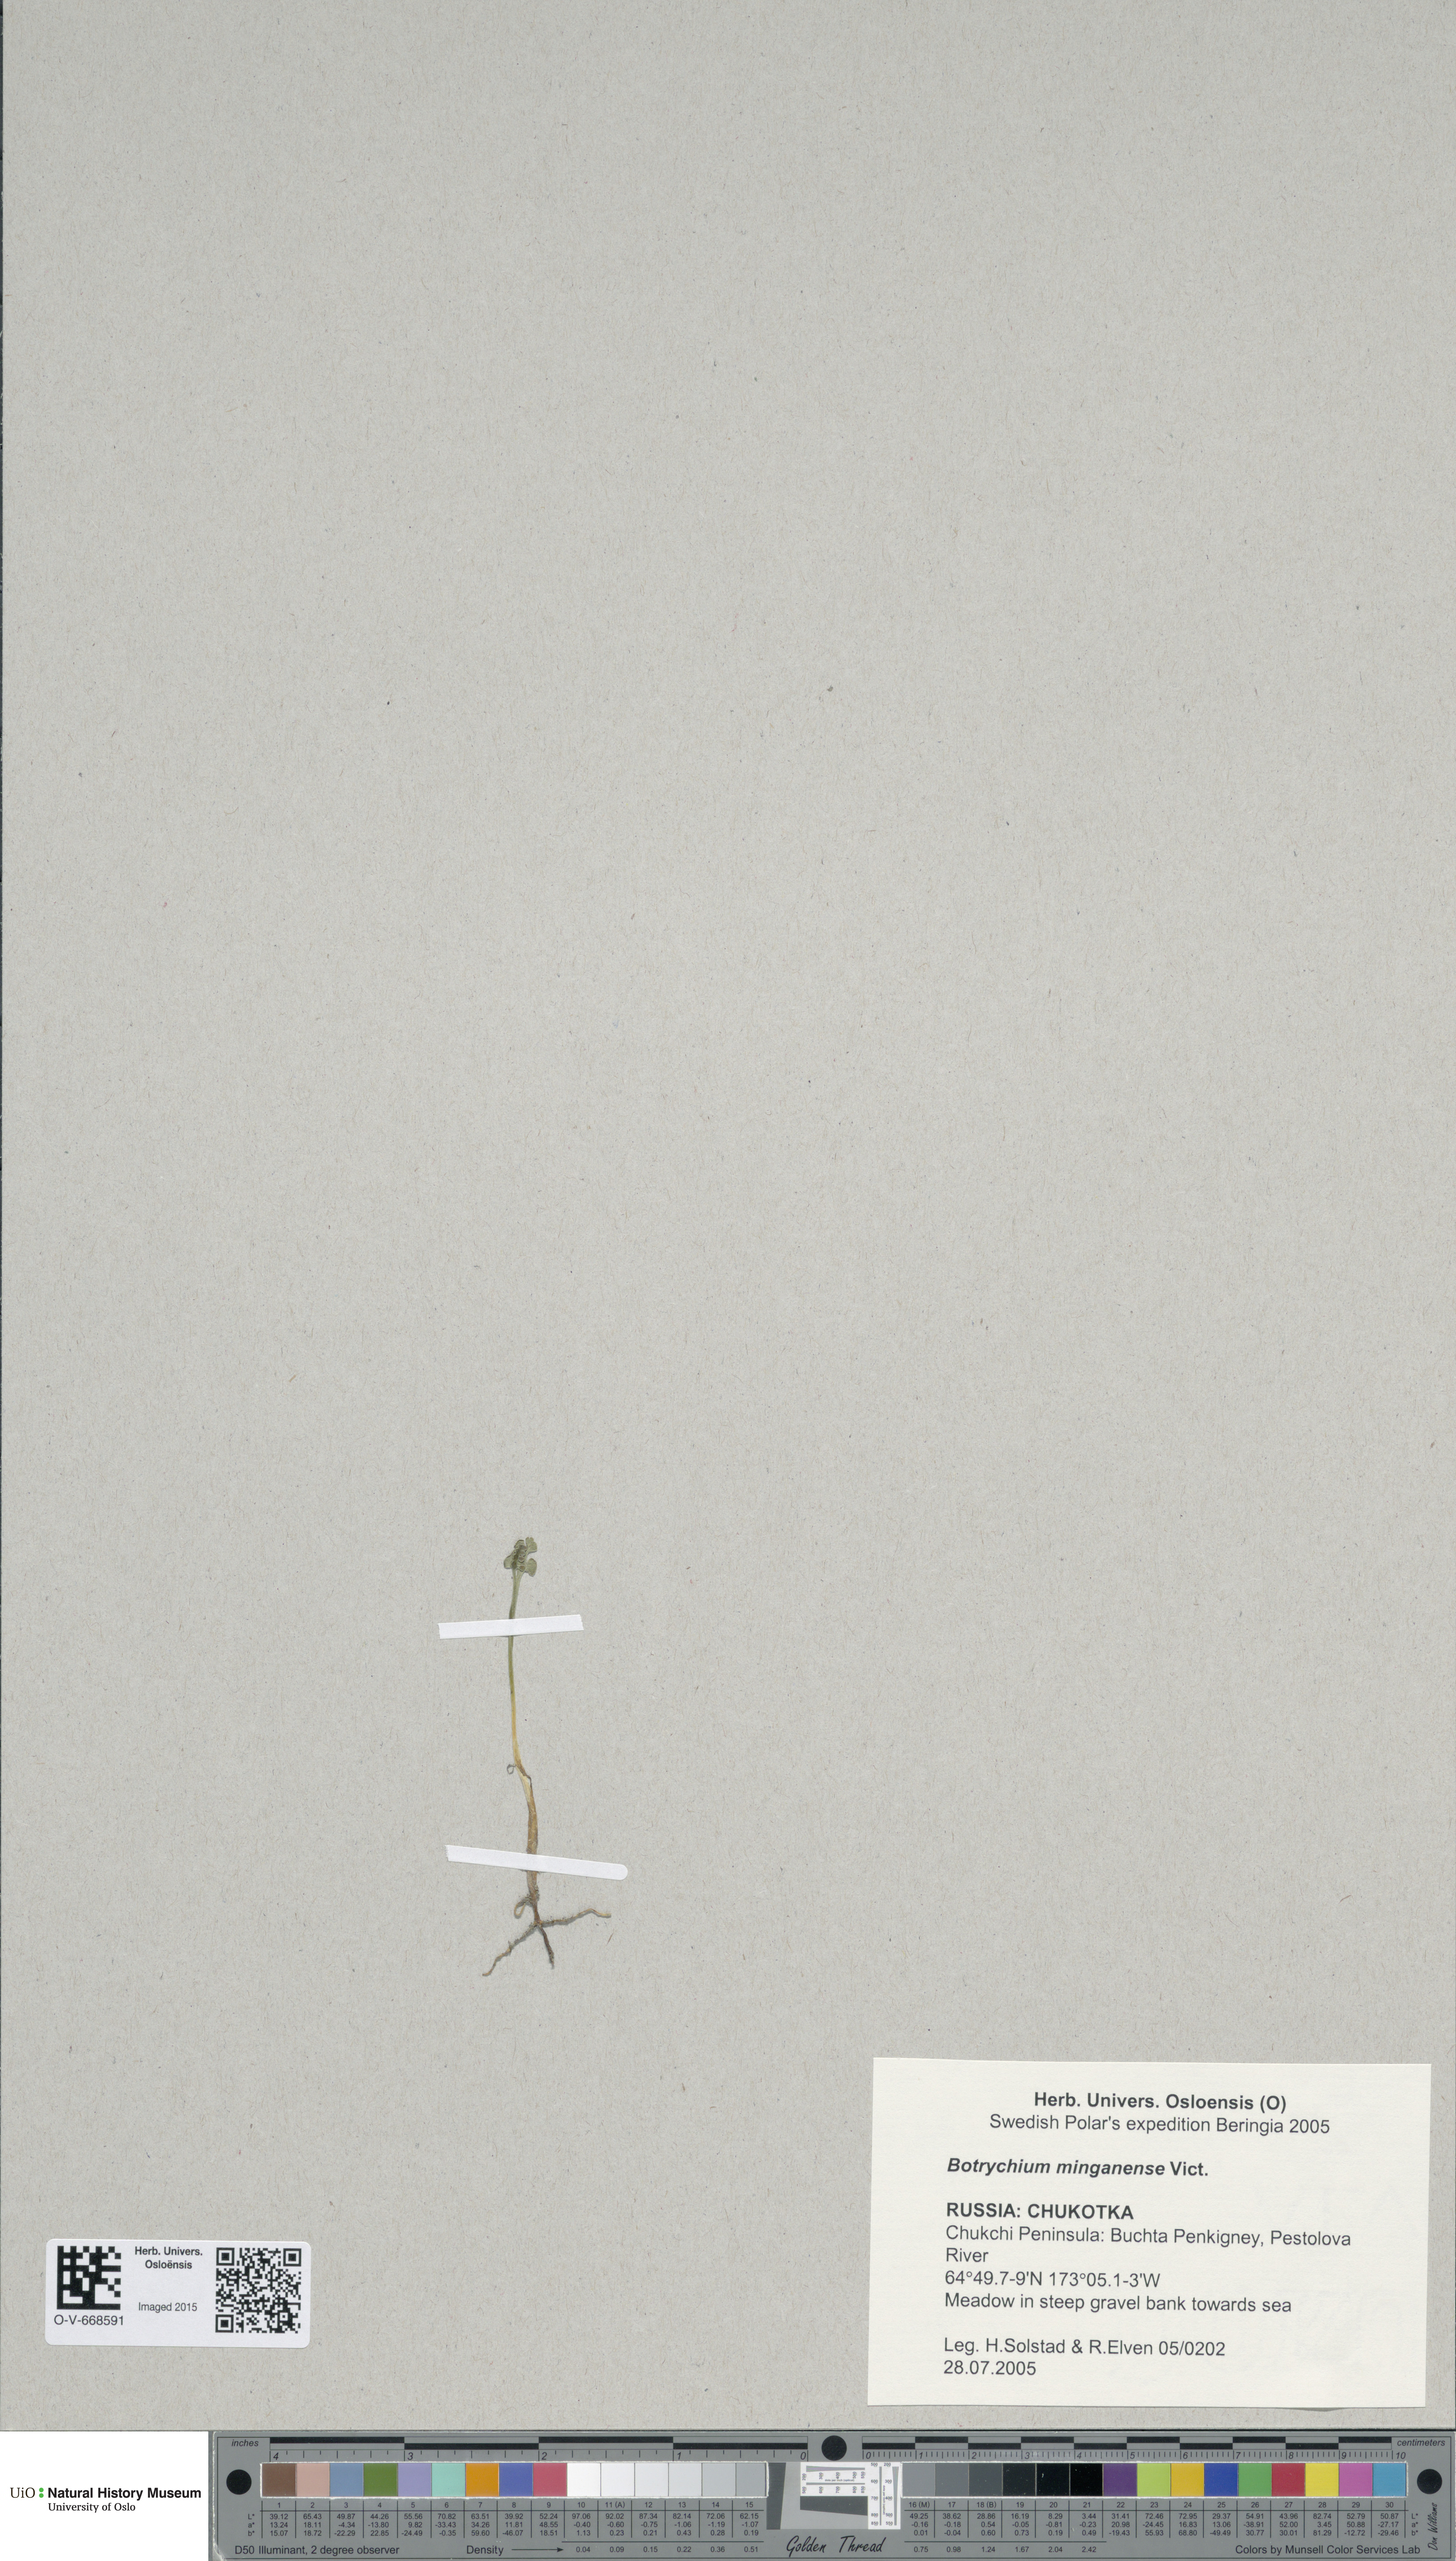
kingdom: Plantae
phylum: Tracheophyta
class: Polypodiopsida
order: Ophioglossales
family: Ophioglossaceae
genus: Botrychium
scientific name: Botrychium minganense
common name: Mingan grapefern
